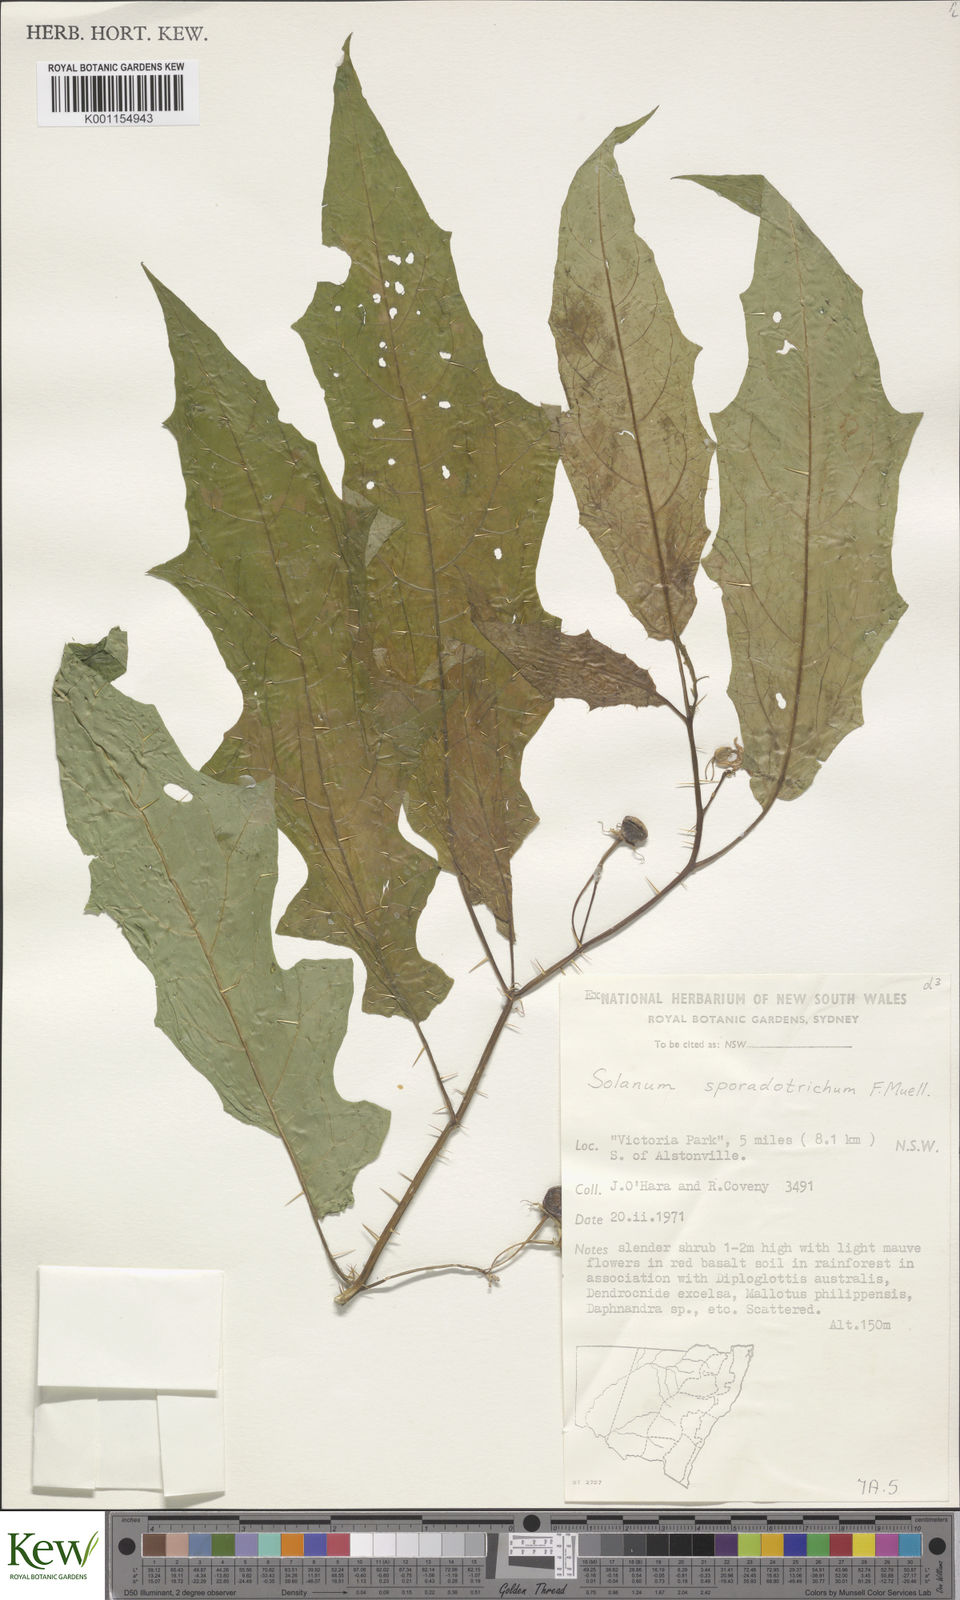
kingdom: Plantae
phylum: Tracheophyta
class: Magnoliopsida
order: Solanales
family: Solanaceae
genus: Solanum
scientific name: Solanum sporadotrichum
